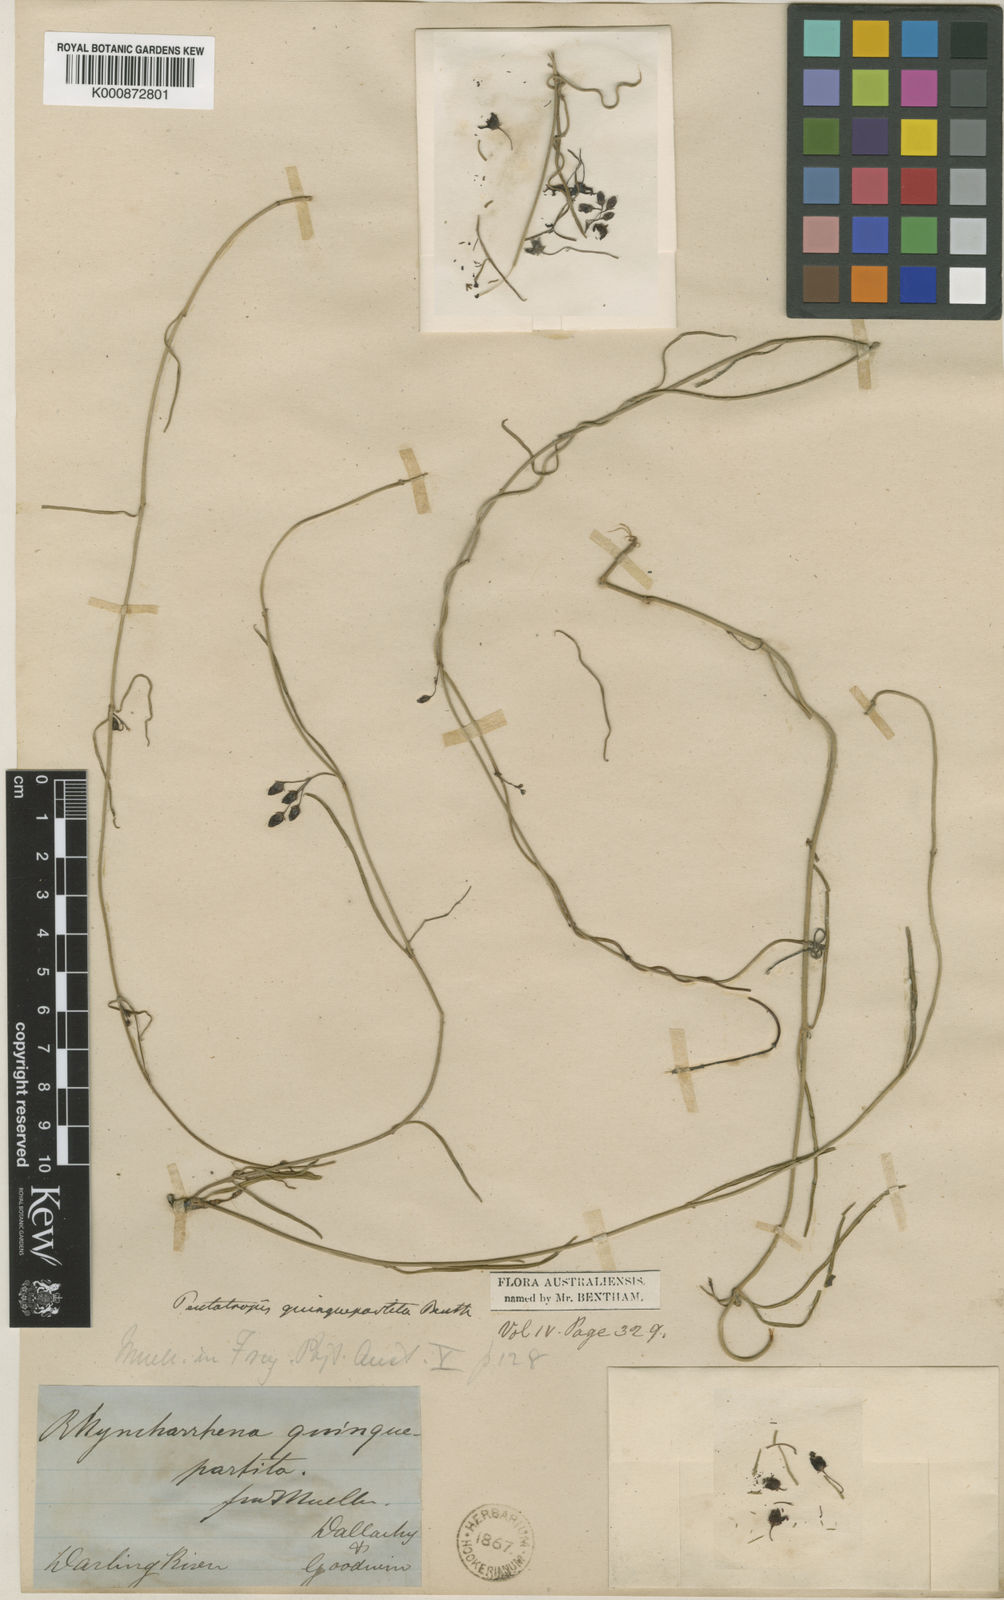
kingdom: Plantae
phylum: Tracheophyta
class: Magnoliopsida
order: Gentianales
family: Apocynaceae
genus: Vincetoxicum
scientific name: Vincetoxicum lineare
